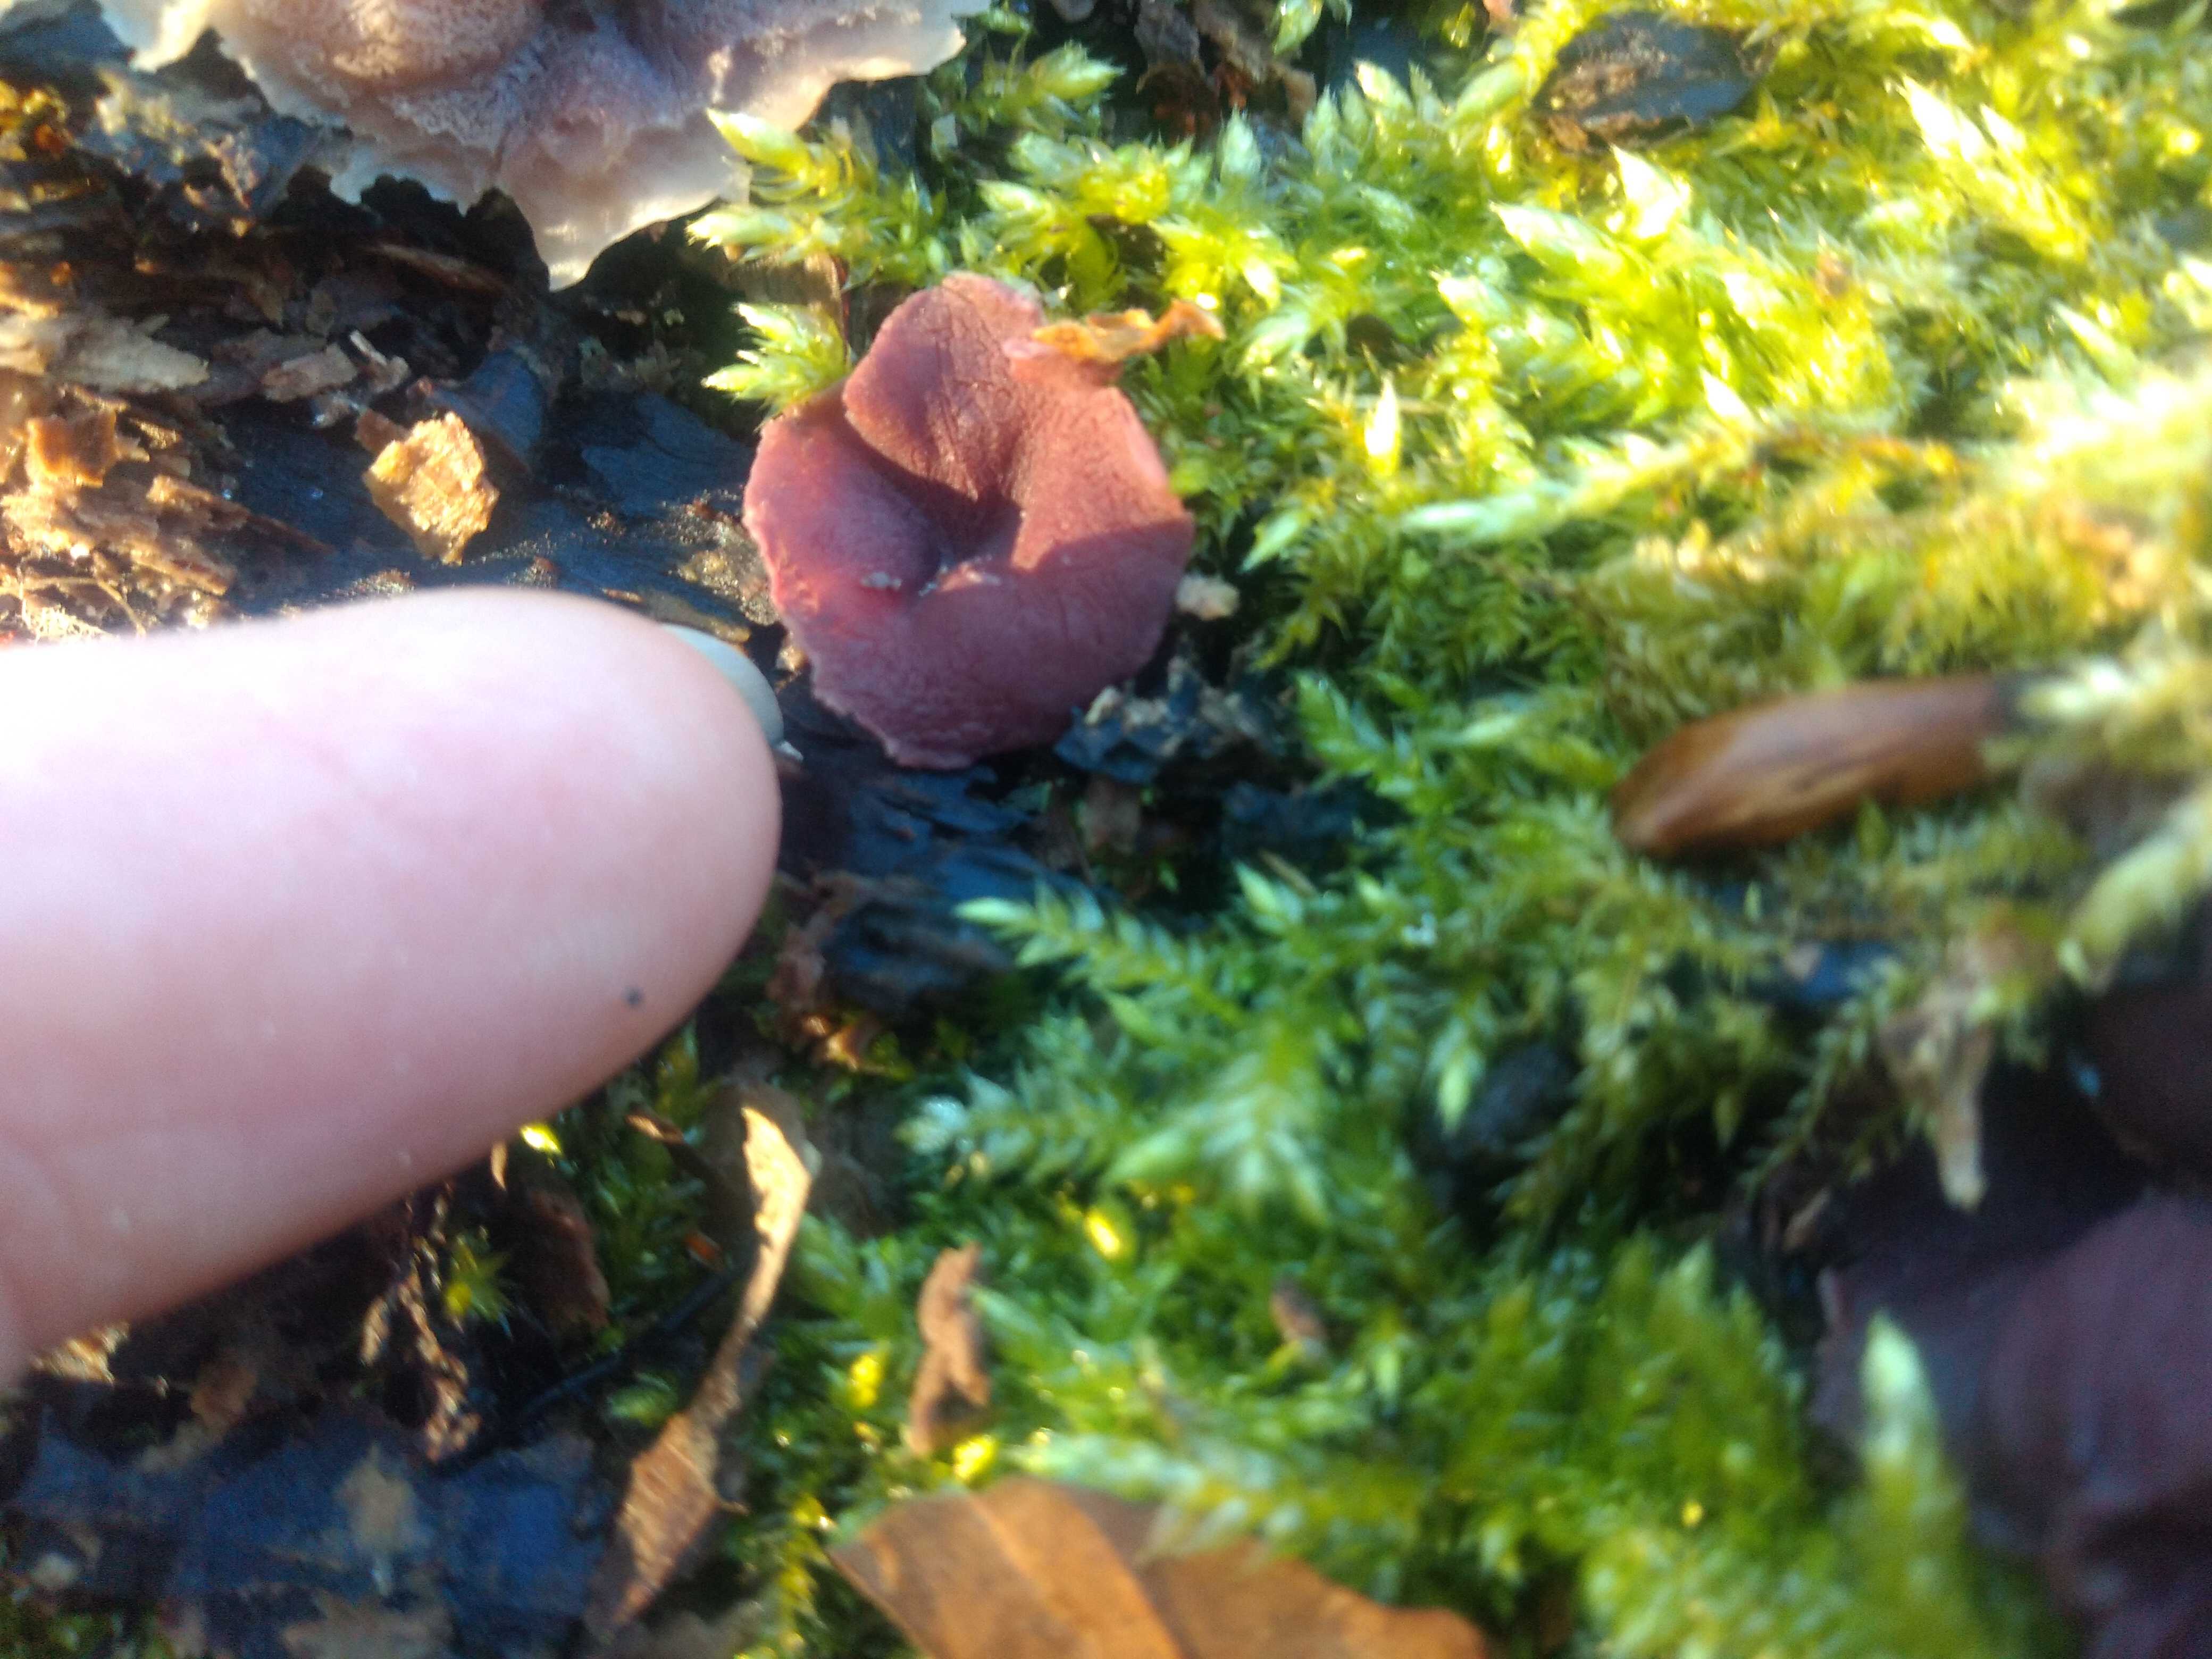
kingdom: Fungi
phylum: Ascomycota
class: Leotiomycetes
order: Helotiales
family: Gelatinodiscaceae
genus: Ascocoryne
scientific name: Ascocoryne cylichnium
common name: stor sejskive
